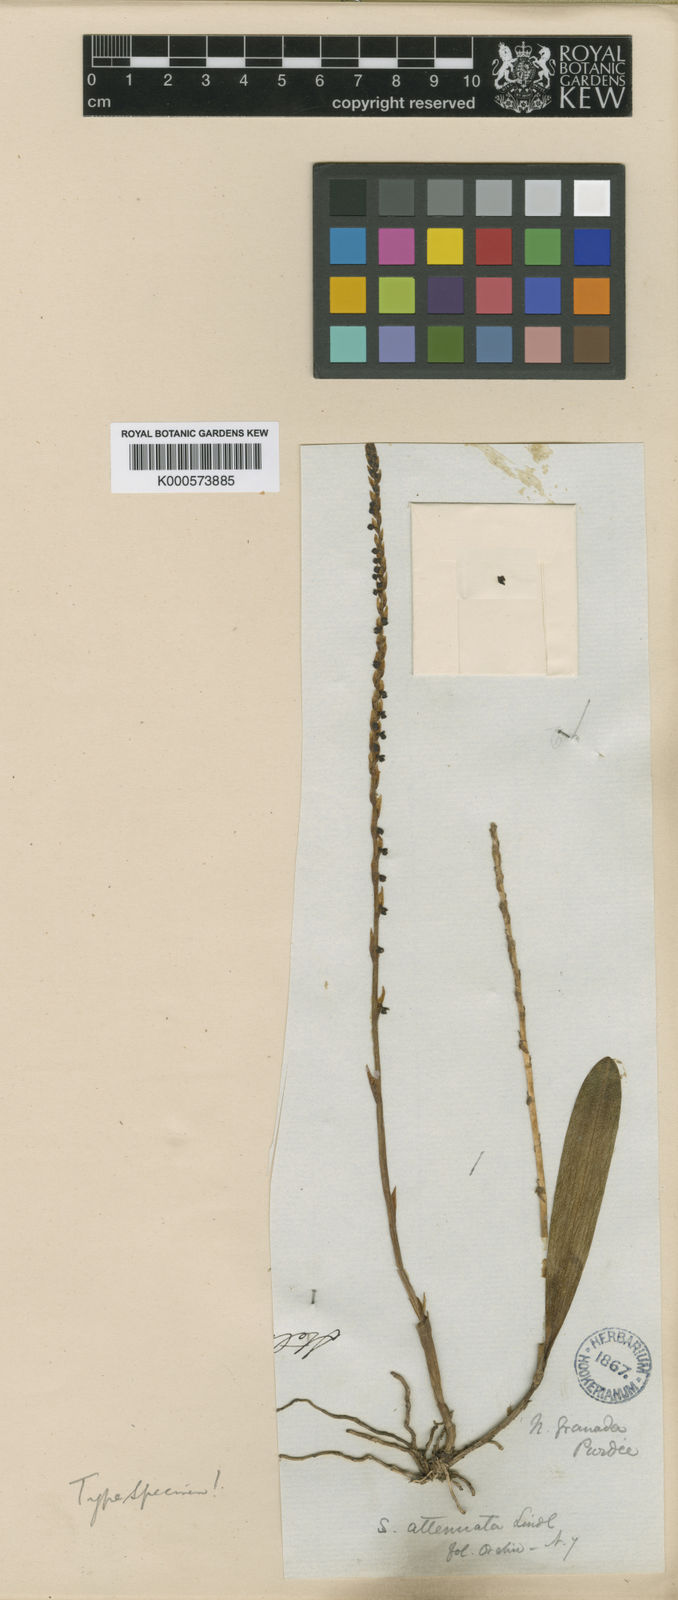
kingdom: Plantae
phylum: Tracheophyta
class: Liliopsida
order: Asparagales
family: Orchidaceae
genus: Stelis
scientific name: Stelis attenuata
